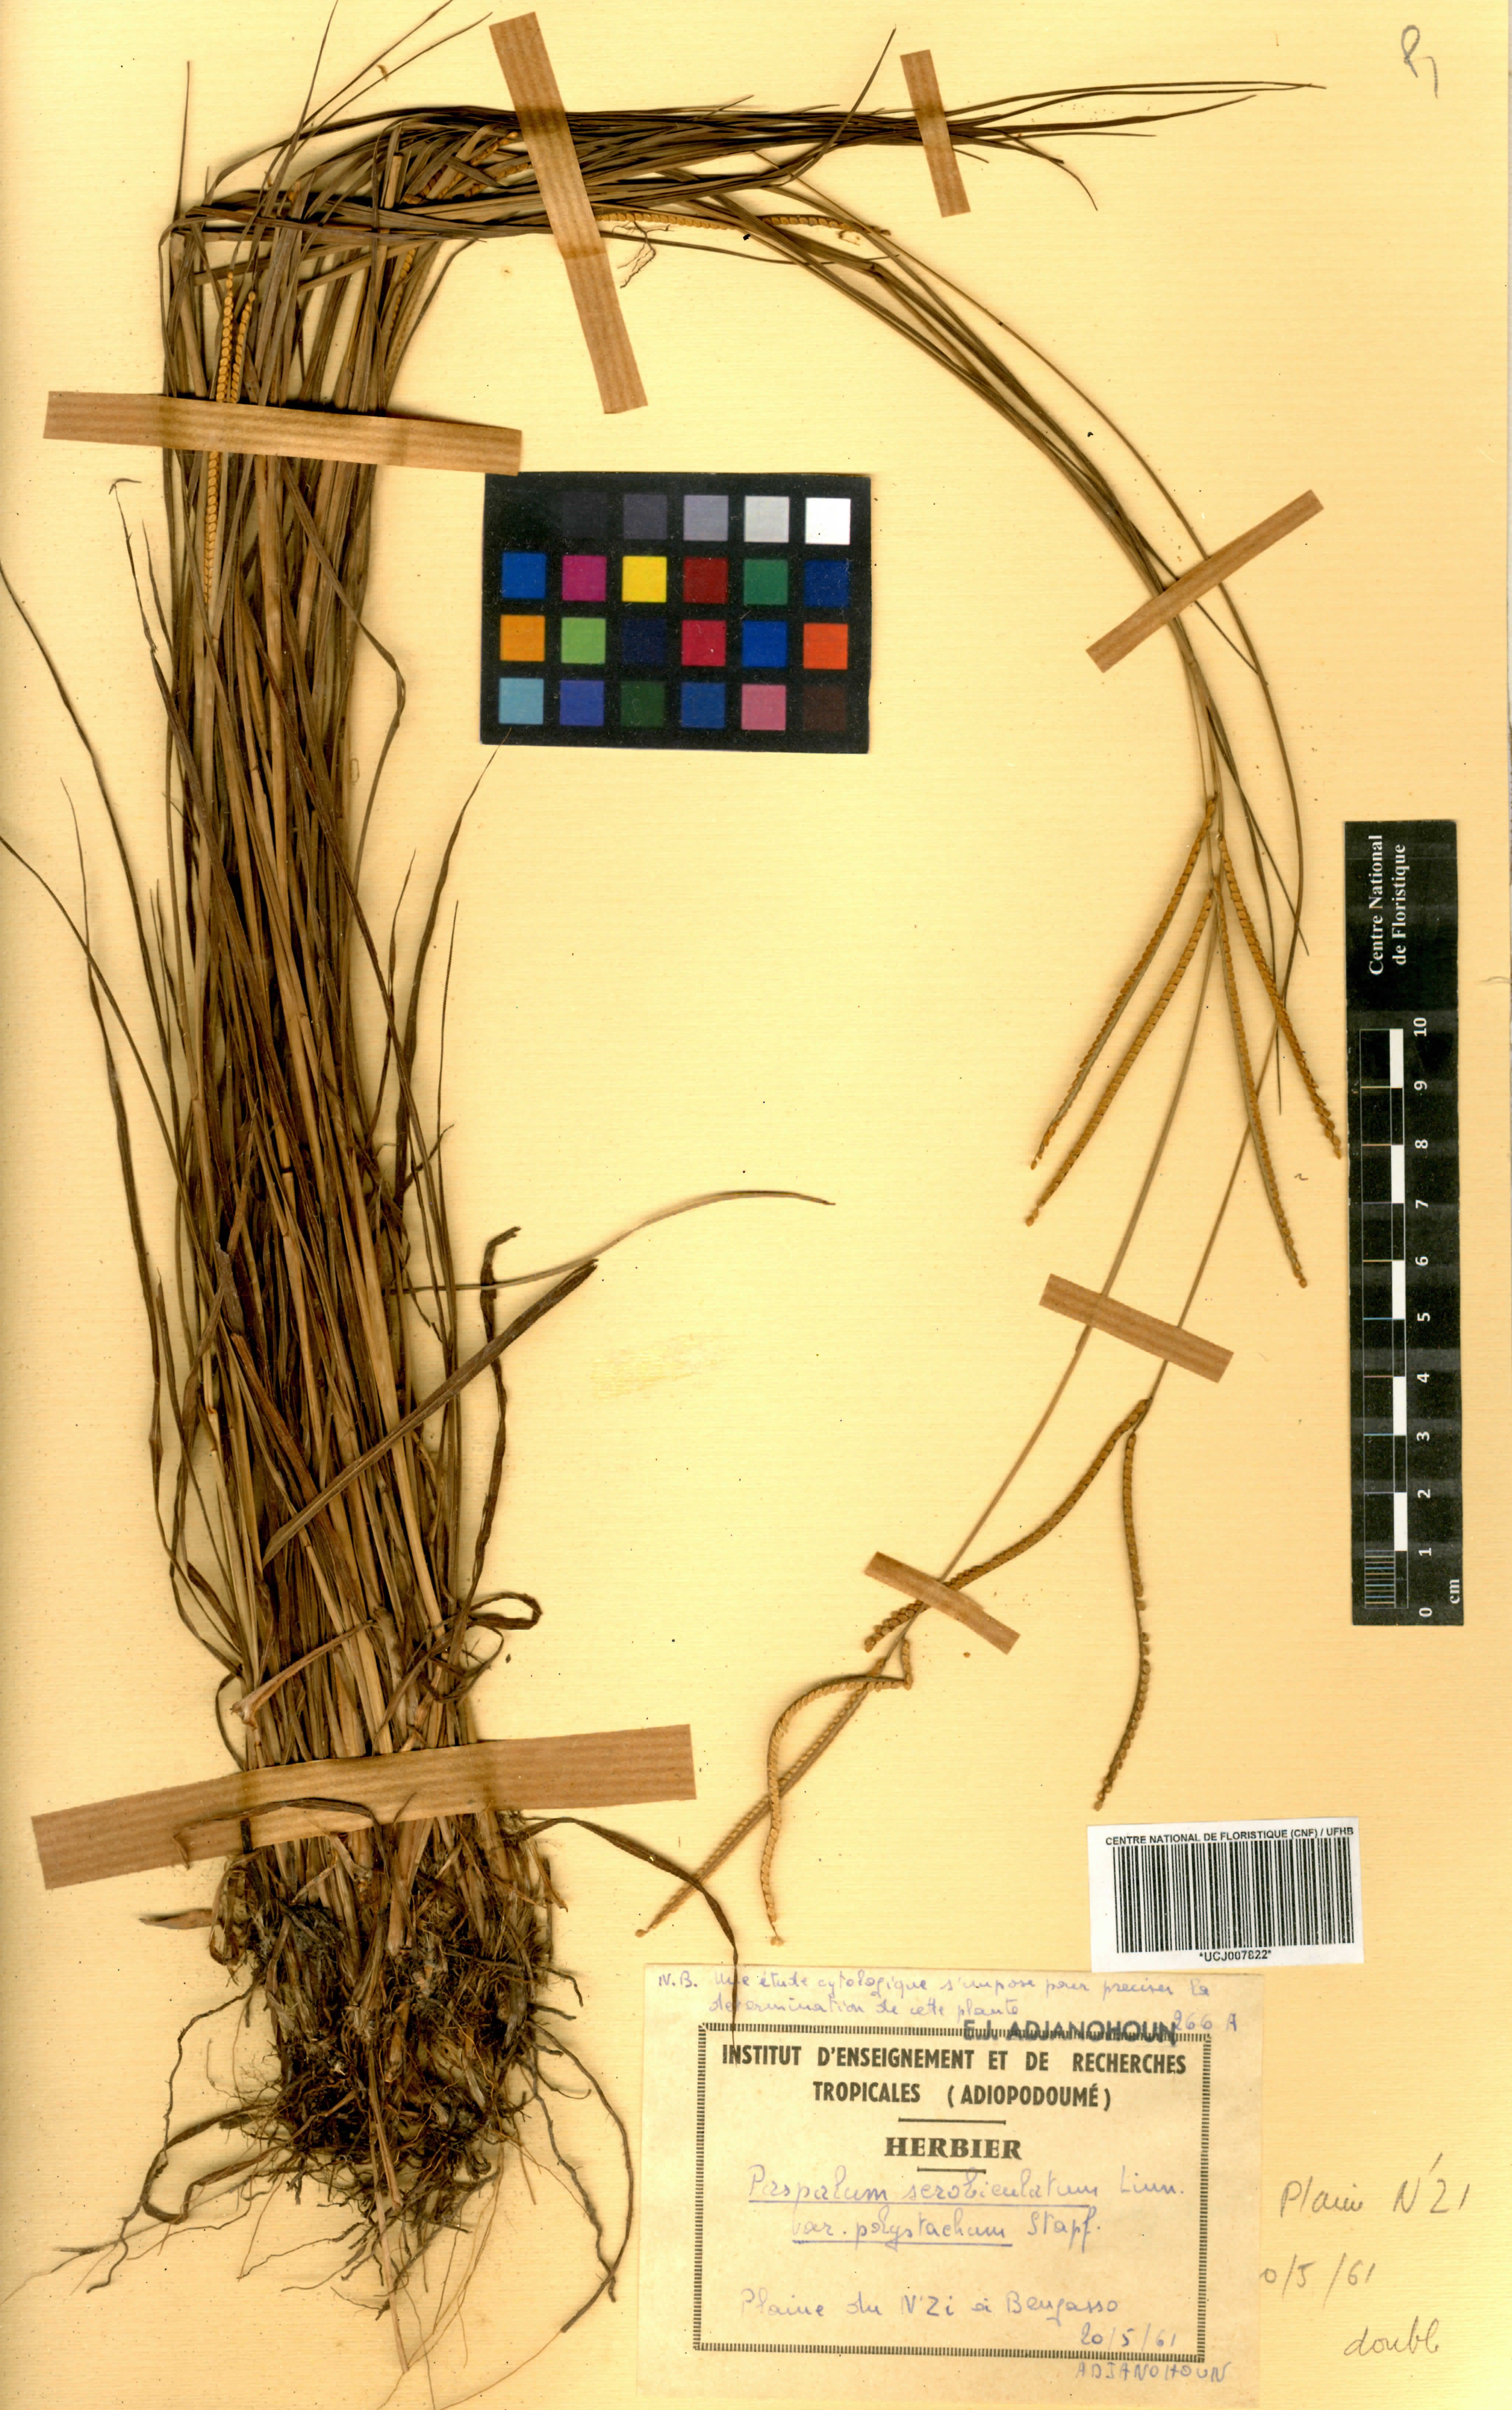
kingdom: Plantae
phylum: Tracheophyta
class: Liliopsida
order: Poales
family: Poaceae
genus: Paspalum
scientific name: Paspalum scrobiculatum
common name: Kodo millet
